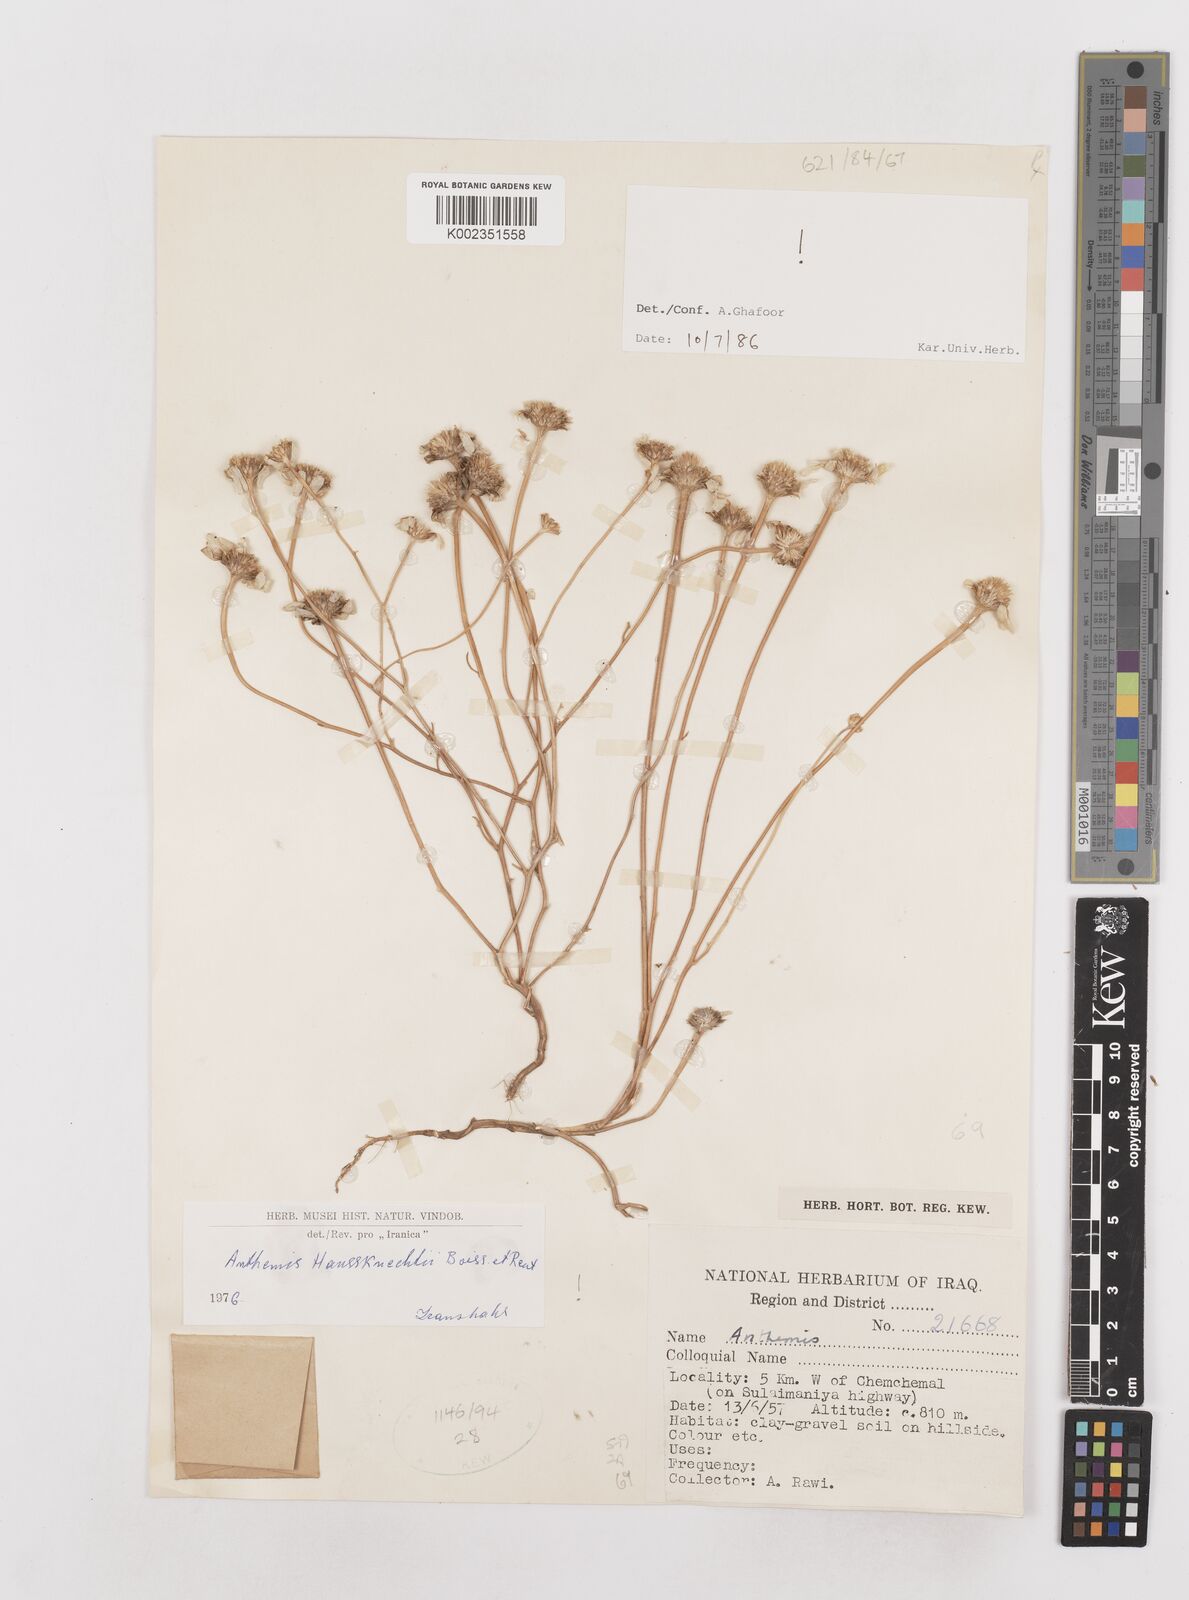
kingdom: Plantae
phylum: Tracheophyta
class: Magnoliopsida
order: Asterales
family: Asteraceae
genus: Anthemis
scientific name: Anthemis haussknechtii
